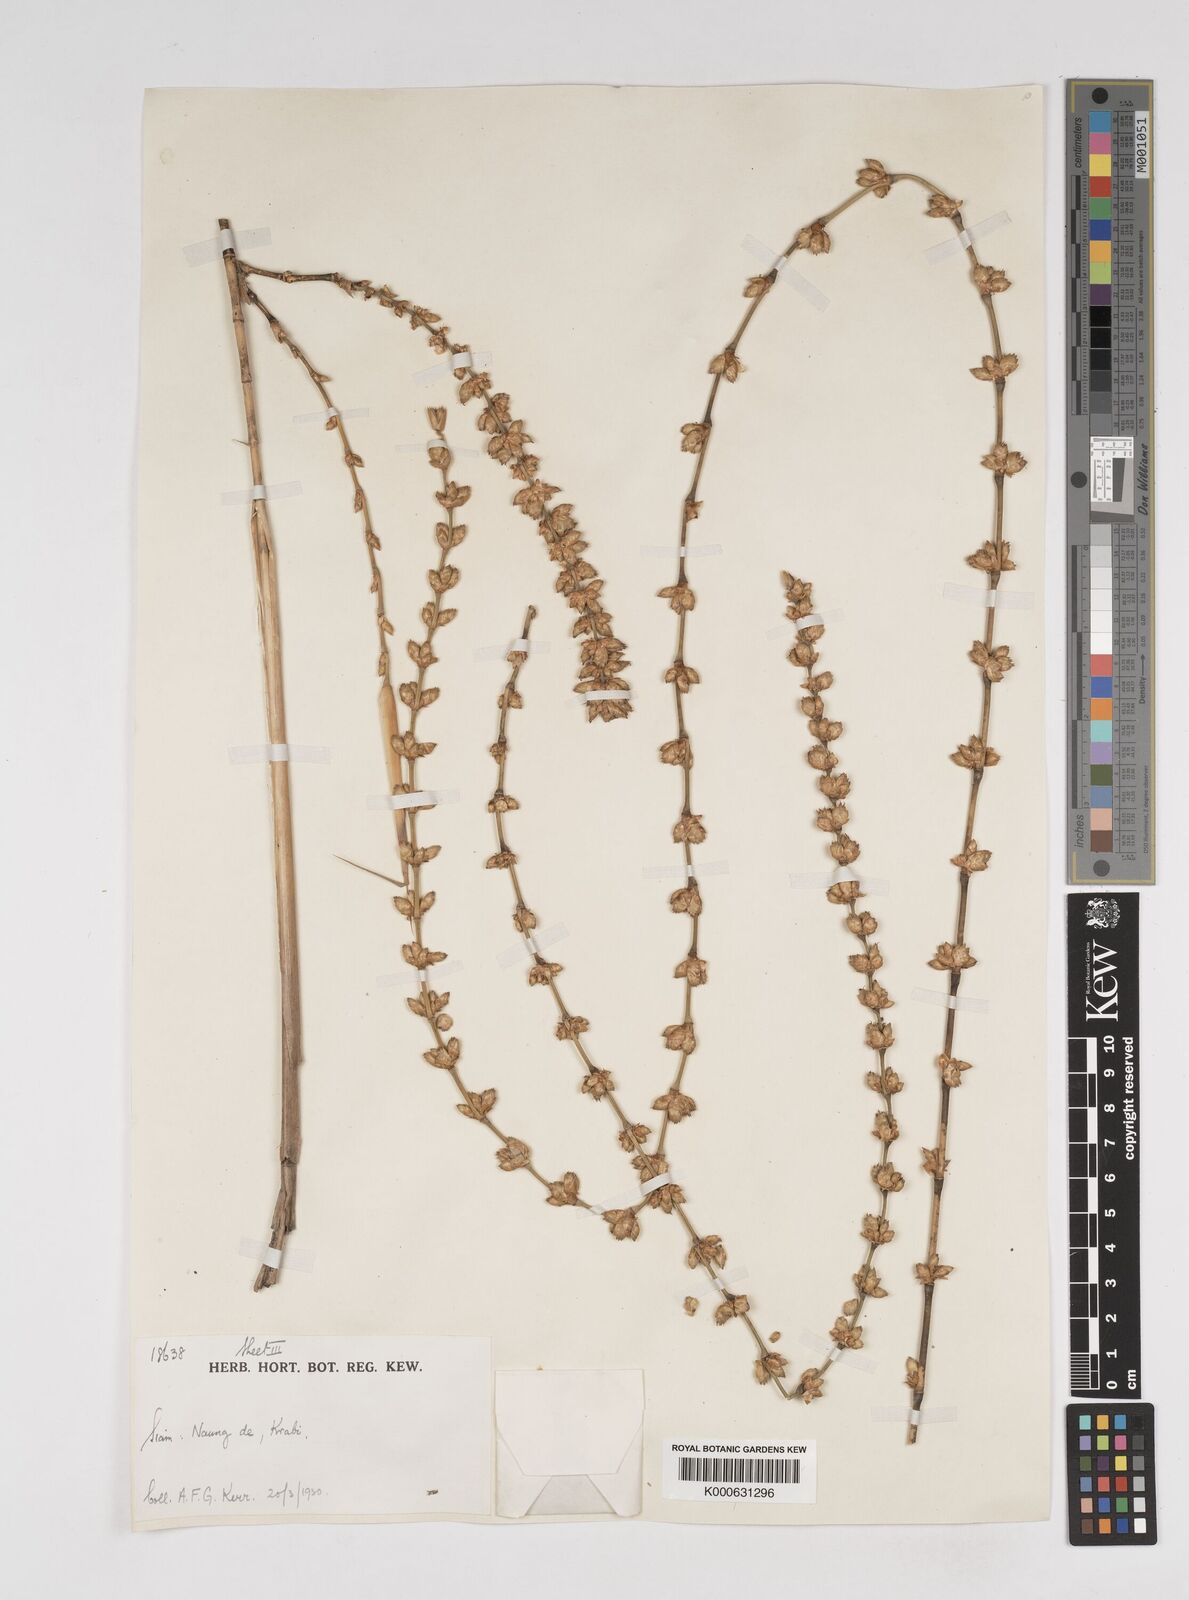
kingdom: Plantae
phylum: Tracheophyta
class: Liliopsida
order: Poales
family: Poaceae
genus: Dendrocalamus
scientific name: Dendrocalamus
